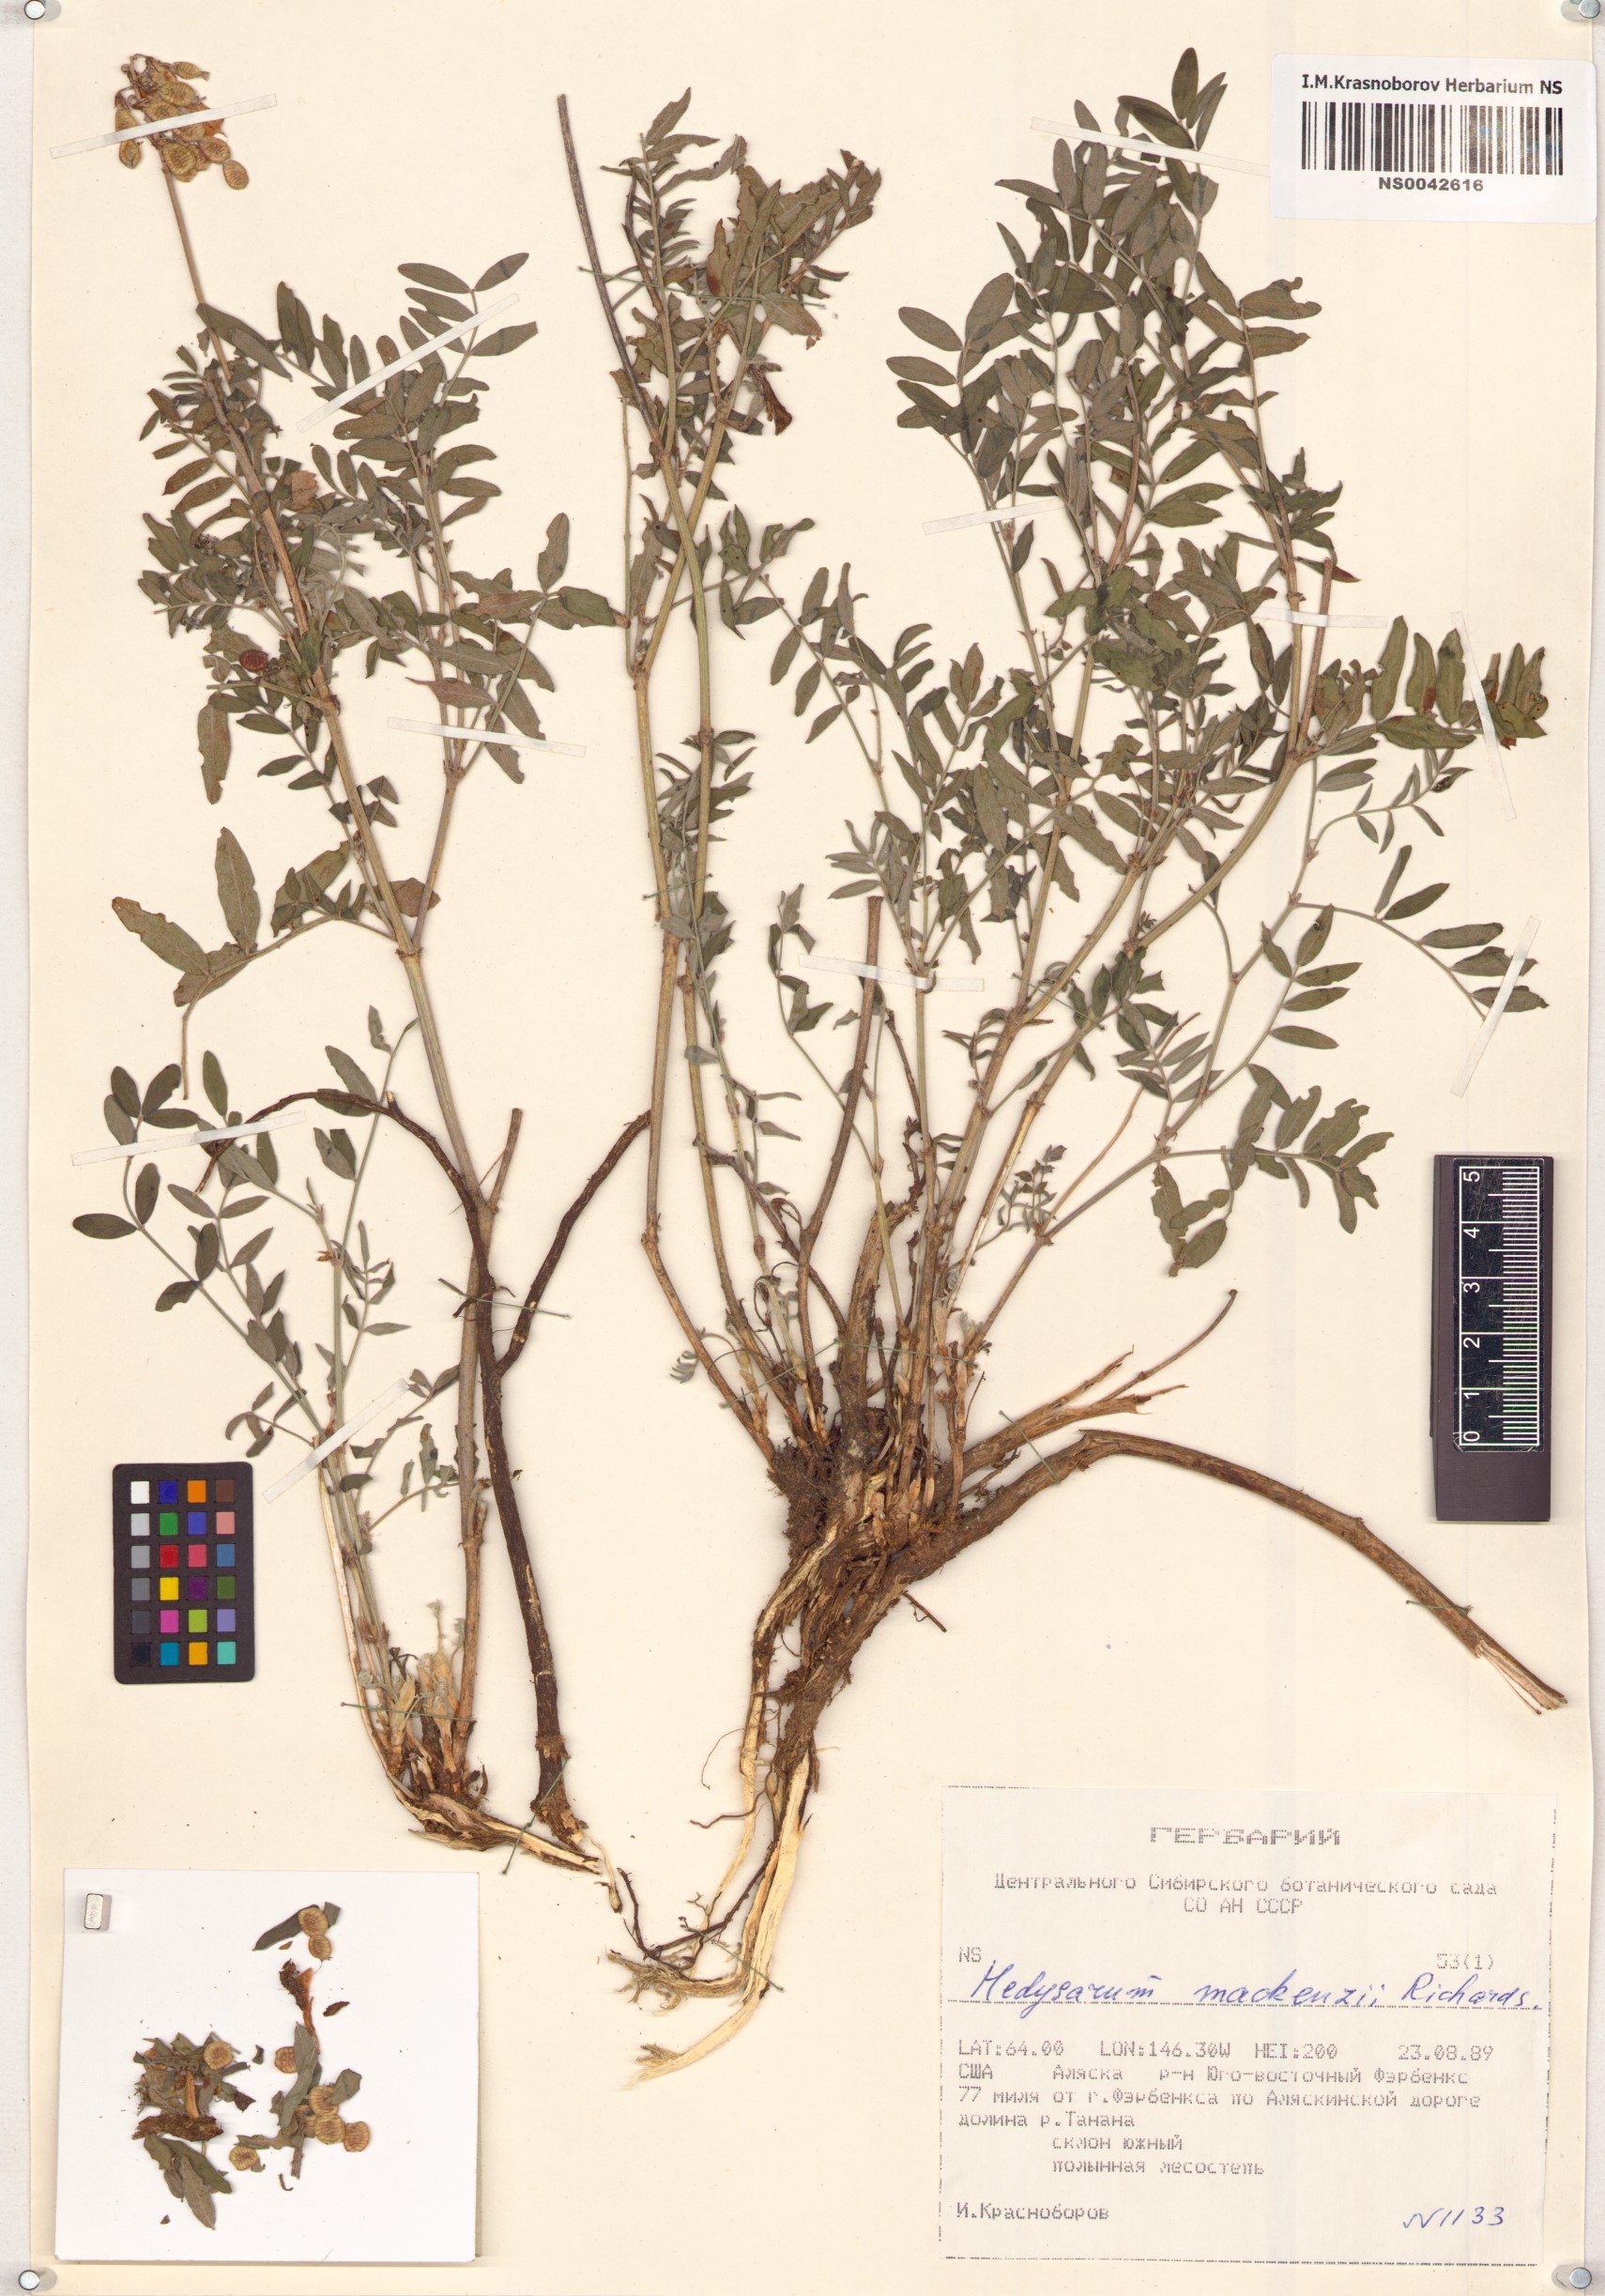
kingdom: Plantae
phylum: Tracheophyta
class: Magnoliopsida
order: Fabales
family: Fabaceae
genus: Hedysarum
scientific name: Hedysarum boreale
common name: Northern sweet-vetch
